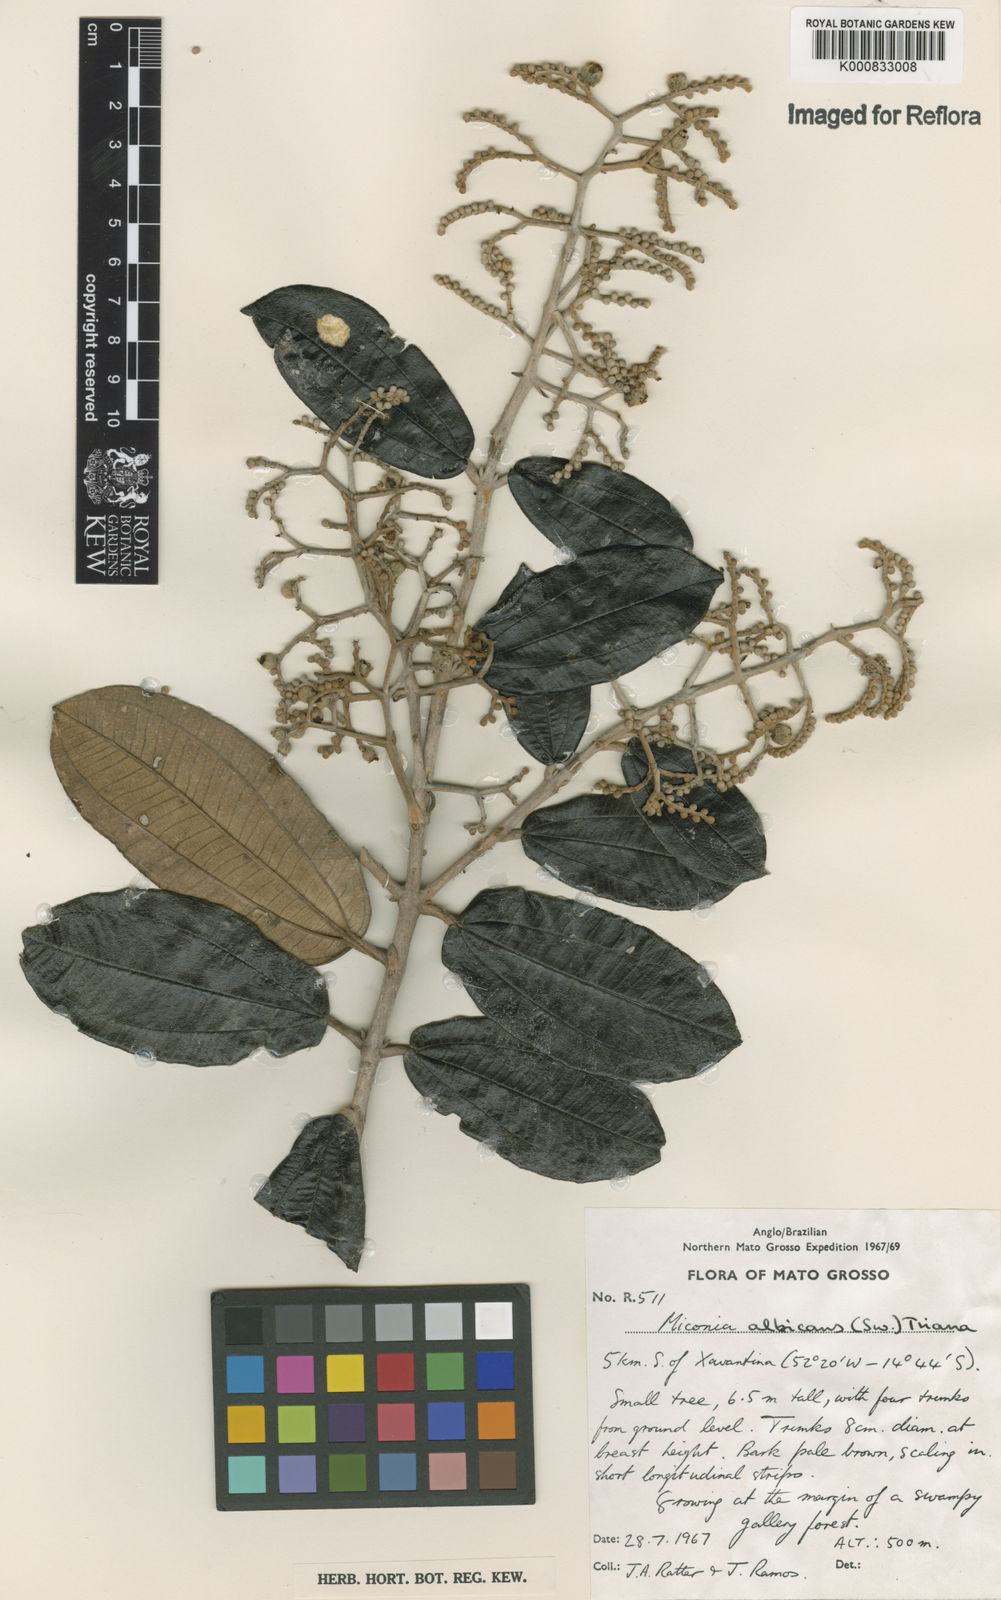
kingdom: Plantae
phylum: Tracheophyta
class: Magnoliopsida
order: Myrtales
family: Melastomataceae
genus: Miconia
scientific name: Miconia albicans
